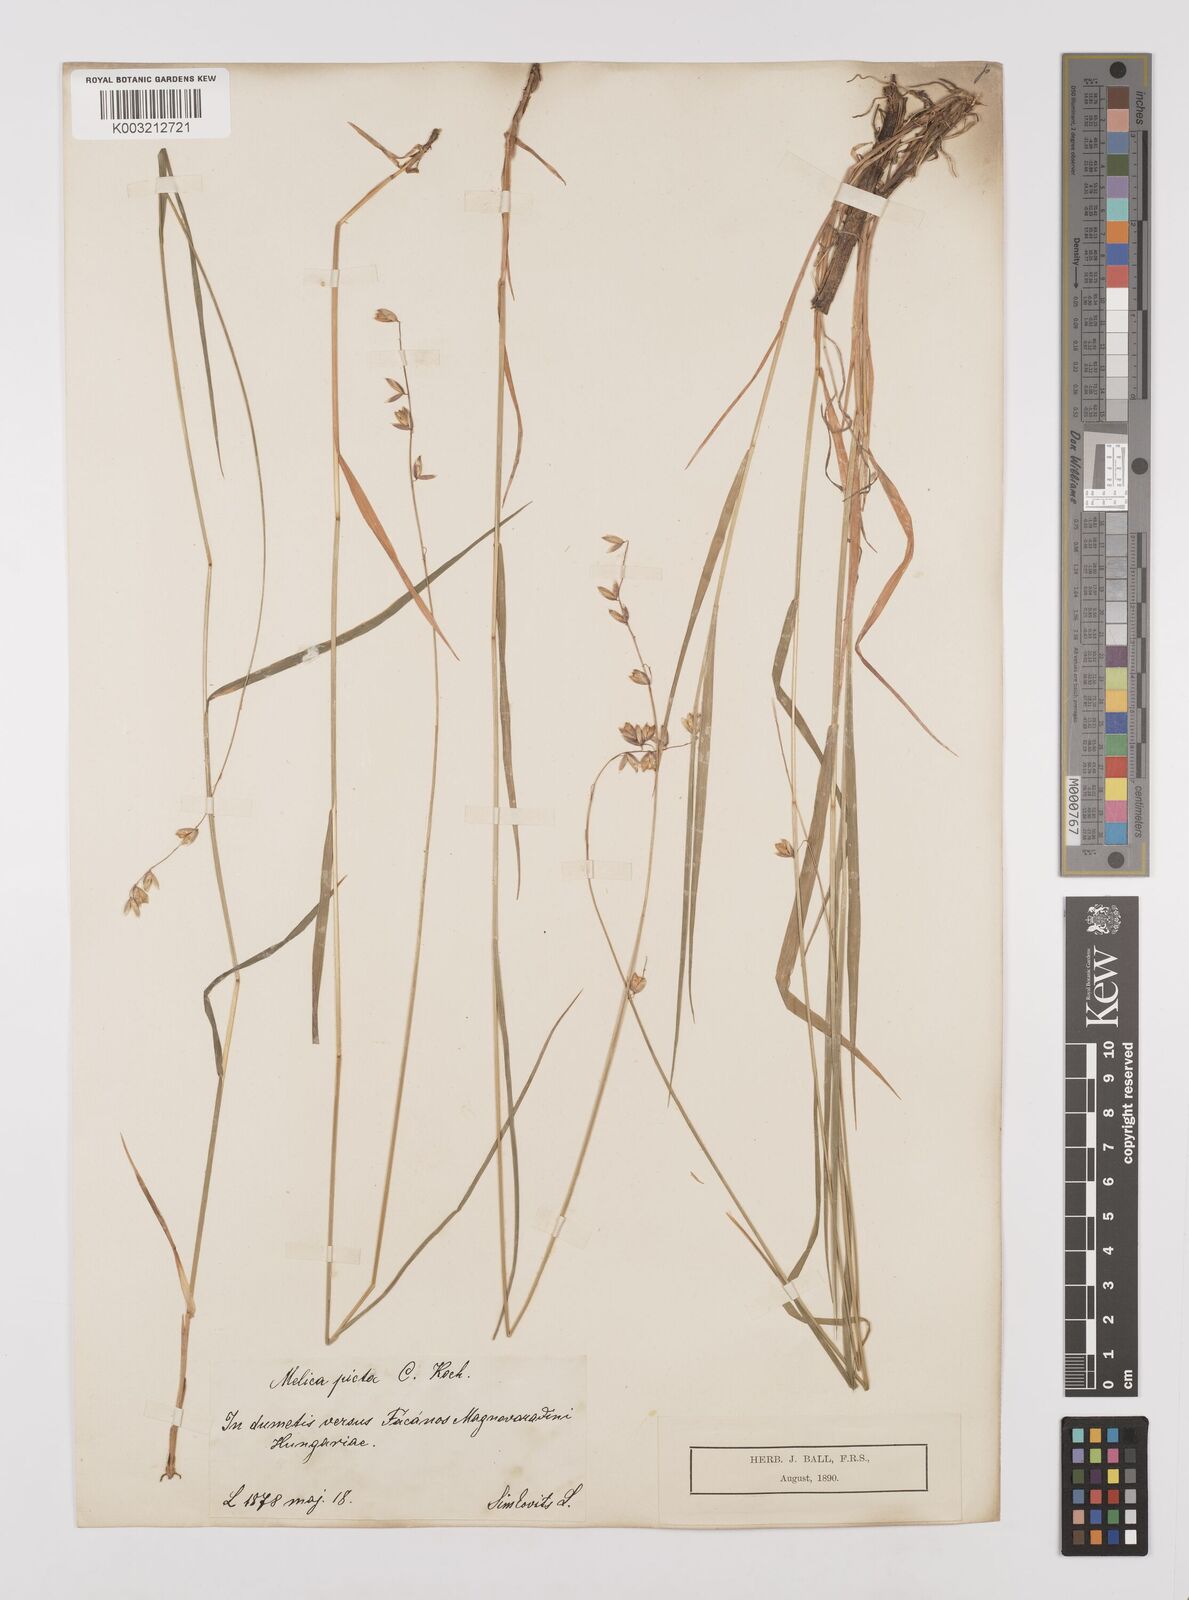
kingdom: Plantae
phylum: Tracheophyta
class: Liliopsida
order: Poales
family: Poaceae
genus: Melica
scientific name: Melica picta
